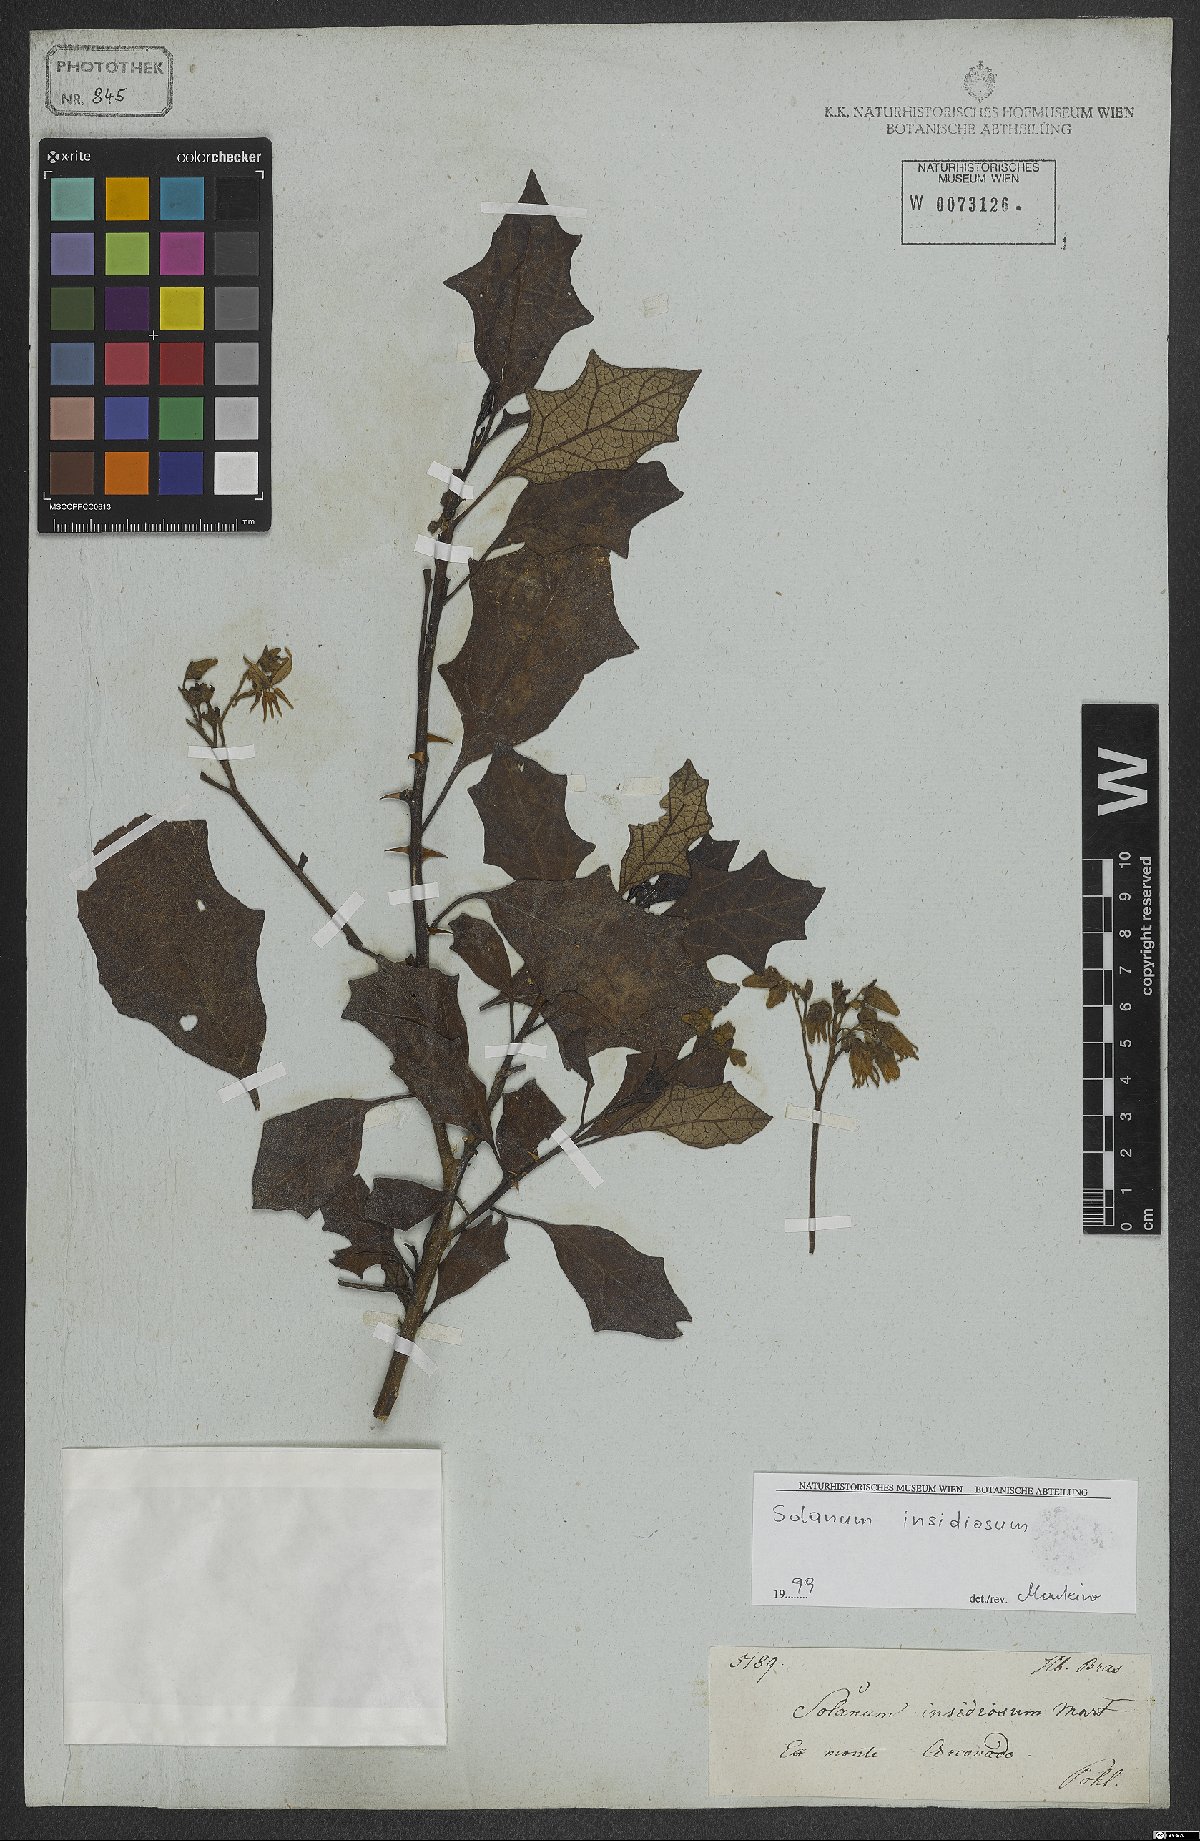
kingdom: Plantae
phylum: Tracheophyta
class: Magnoliopsida
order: Solanales
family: Solanaceae
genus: Solanum
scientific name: Solanum insidiosum
